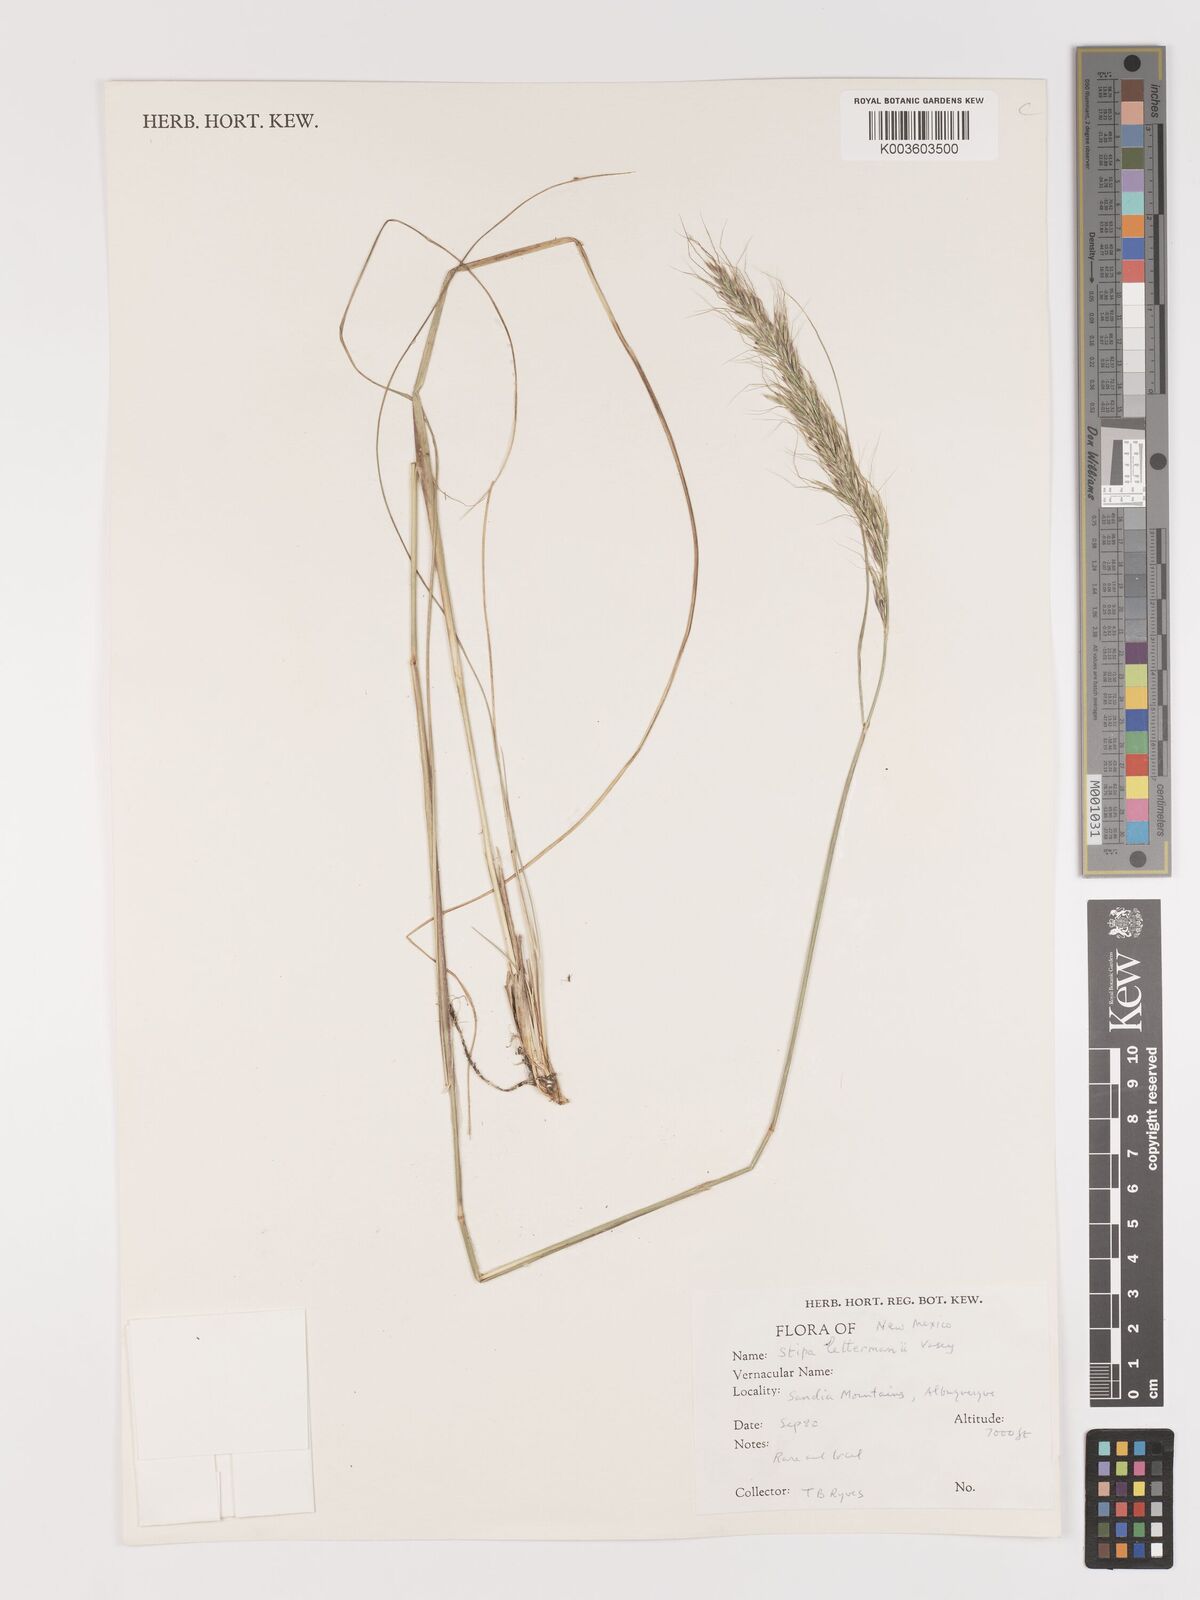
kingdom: Plantae
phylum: Tracheophyta
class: Liliopsida
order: Poales
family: Poaceae
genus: Eriocoma
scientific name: Eriocoma lettermanii
